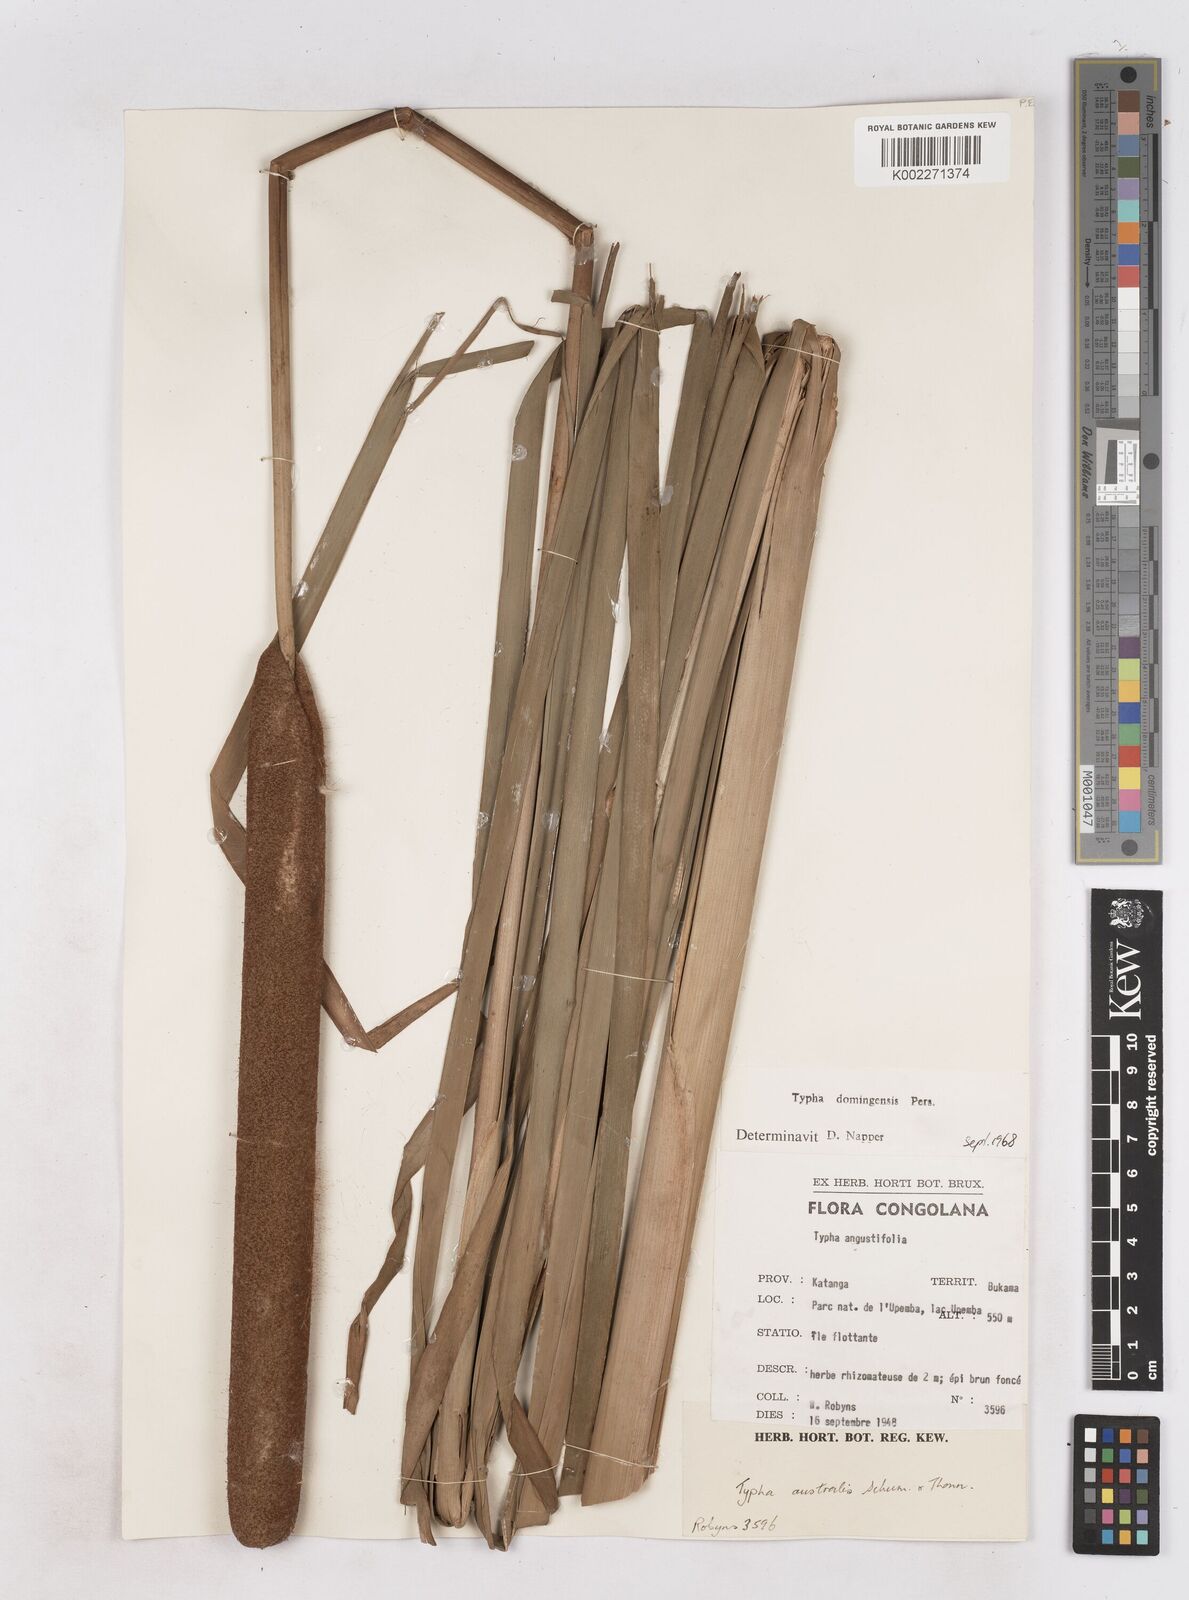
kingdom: Plantae
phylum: Tracheophyta
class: Liliopsida
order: Poales
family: Typhaceae
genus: Typha
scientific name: Typha domingensis
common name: Southern cattail
